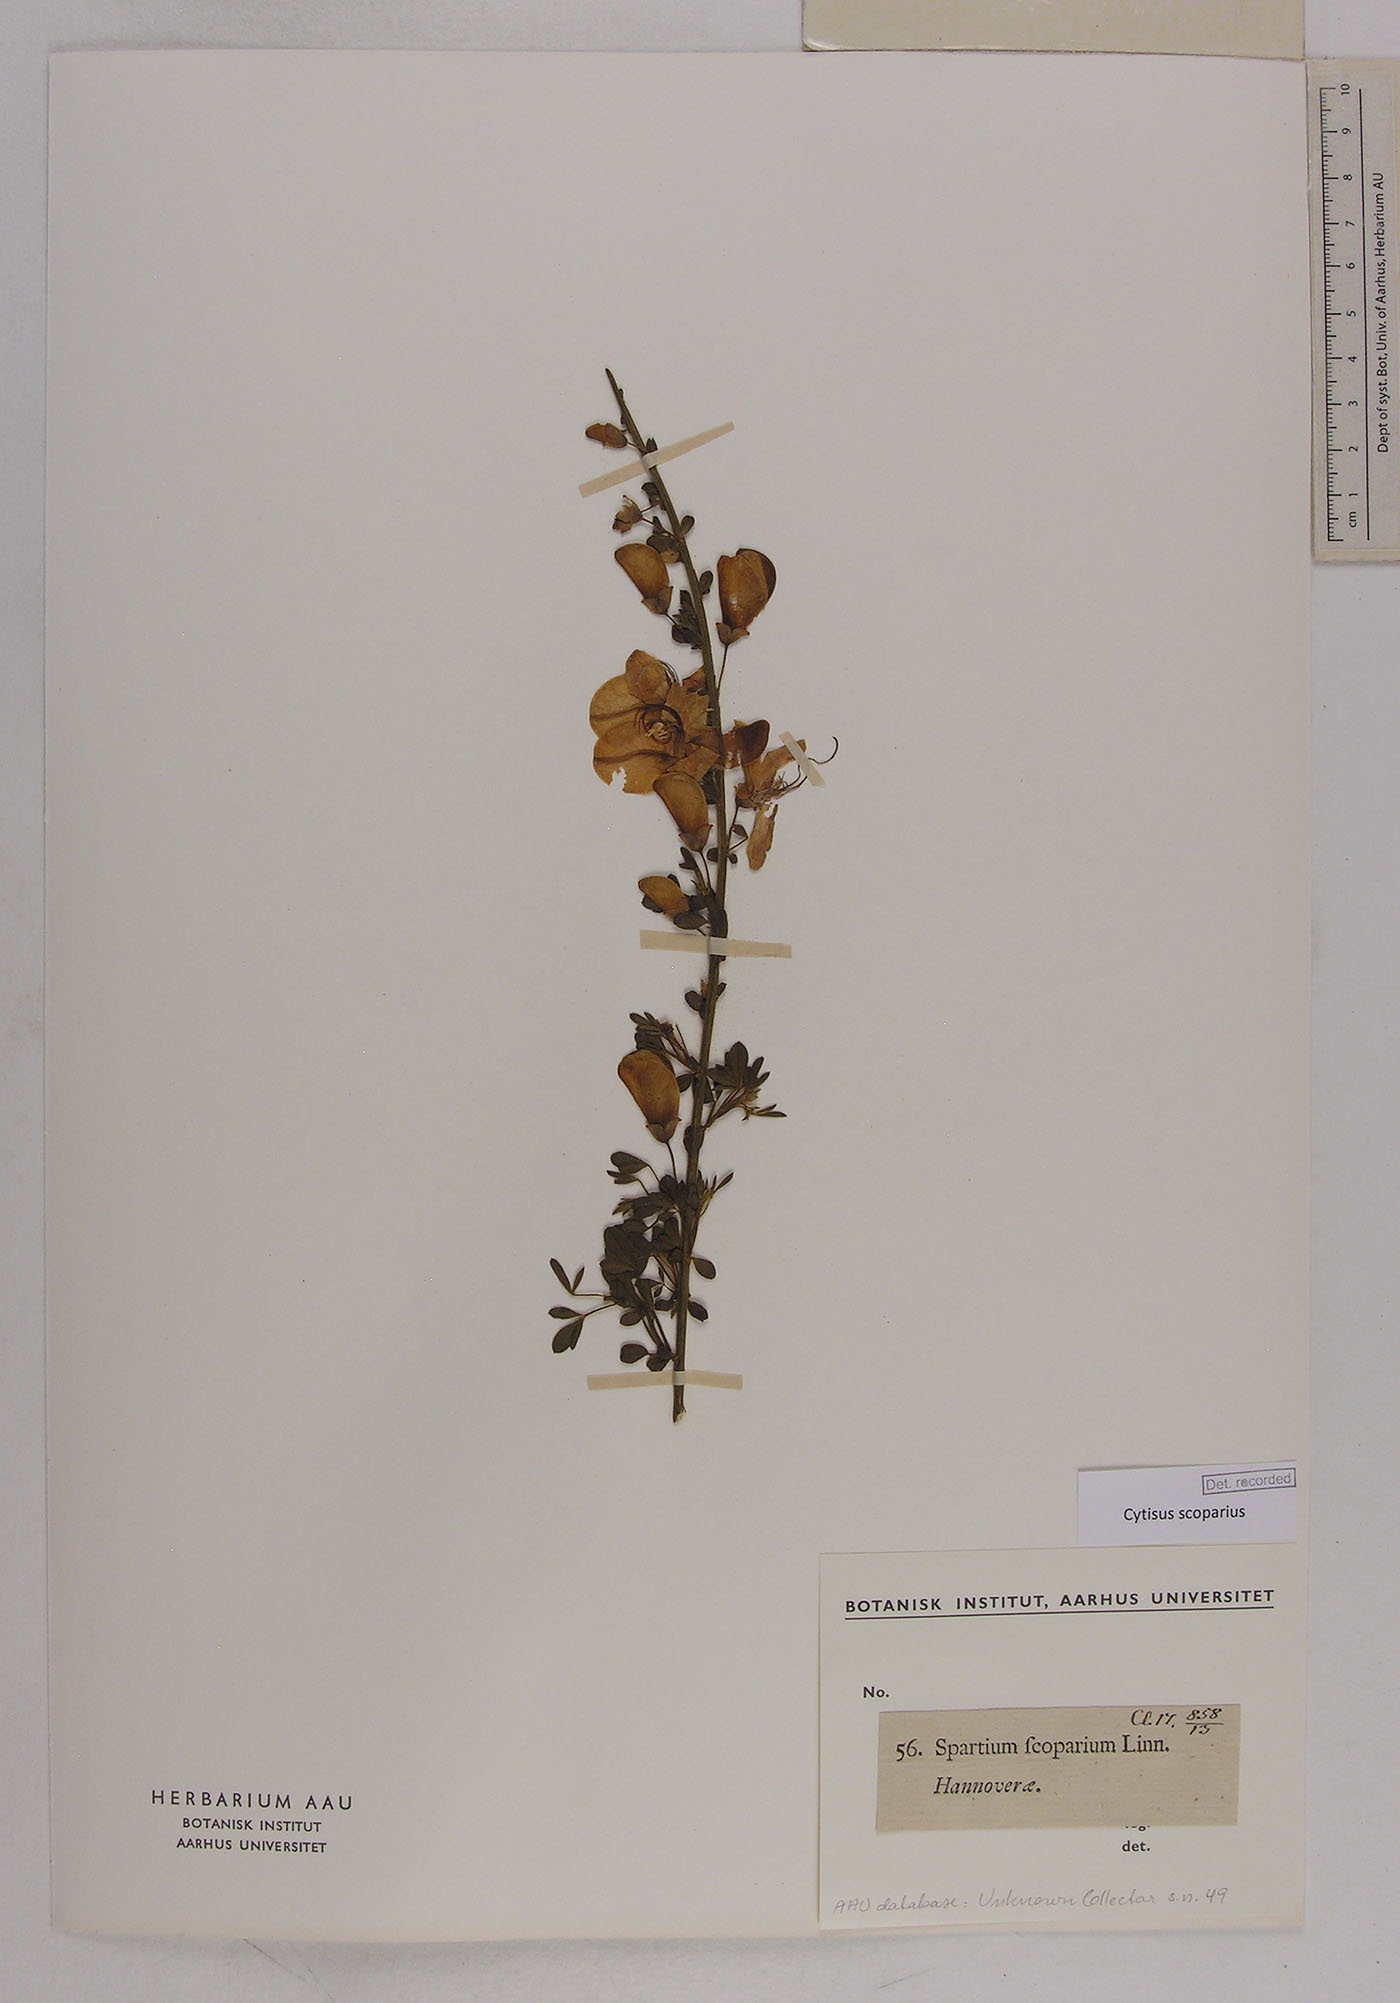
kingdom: Plantae
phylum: Tracheophyta
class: Magnoliopsida
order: Fabales
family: Fabaceae
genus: Cytisus
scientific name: Cytisus scoparius
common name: Scotch broom
